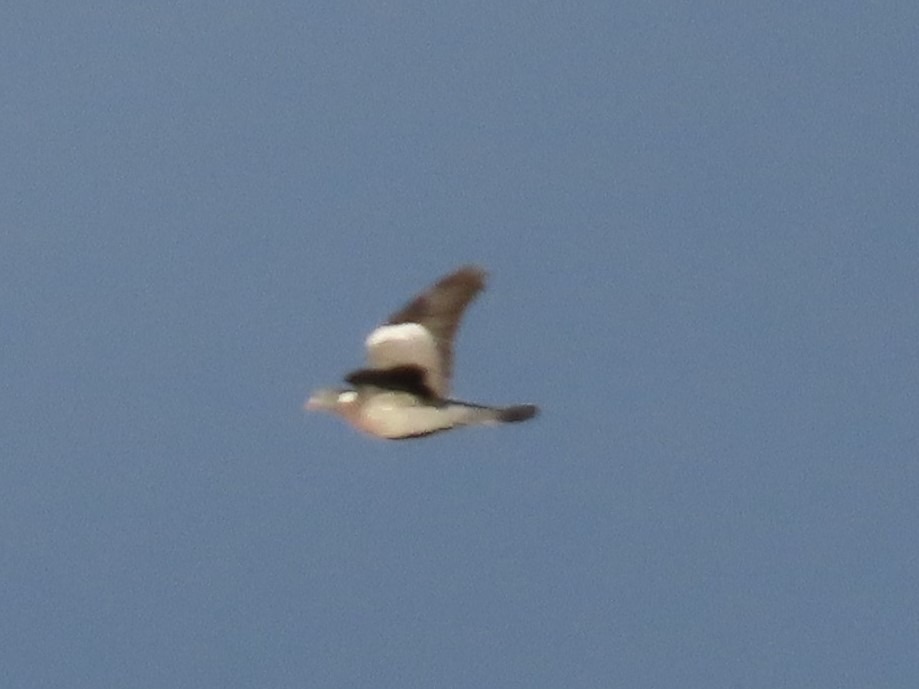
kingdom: Animalia
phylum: Chordata
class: Aves
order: Columbiformes
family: Columbidae
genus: Columba
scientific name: Columba palumbus
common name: Ringdue
